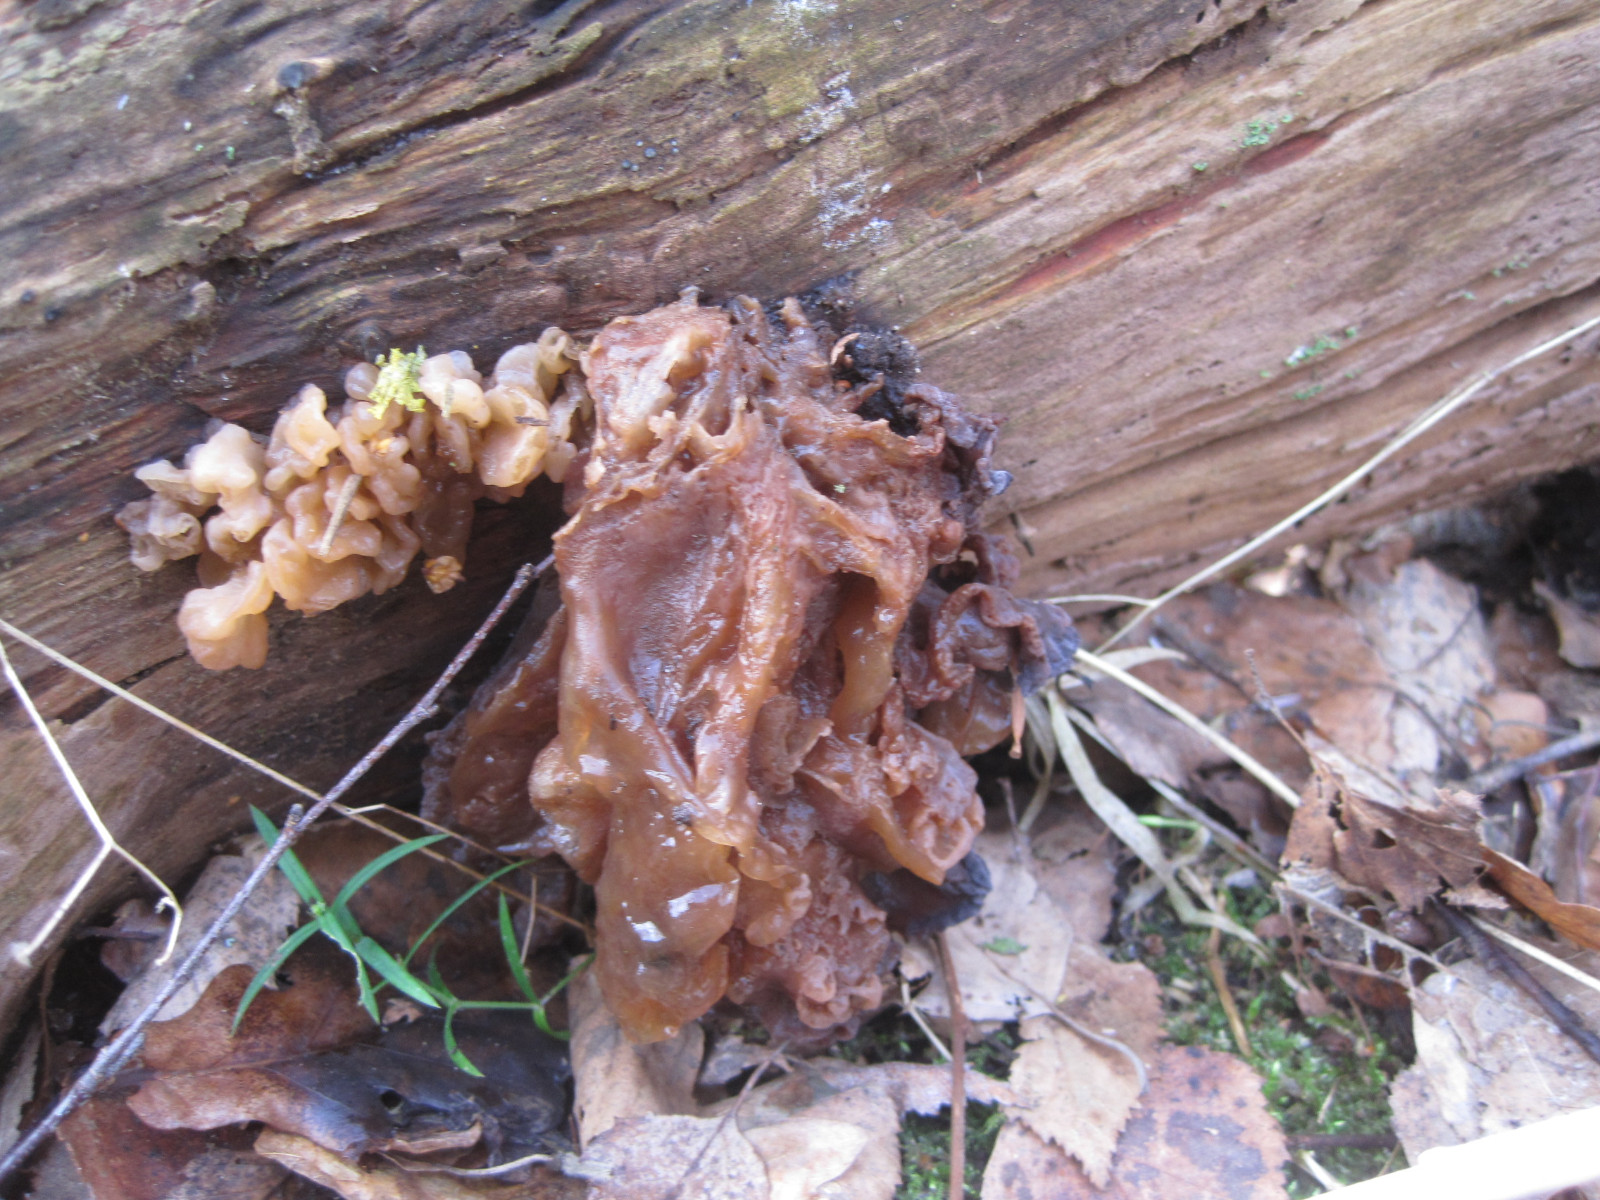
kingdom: Fungi
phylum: Basidiomycota
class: Tremellomycetes
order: Tremellales
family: Tremellaceae
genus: Phaeotremella
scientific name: Phaeotremella frondosa
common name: kæmpe-bævresvamp
